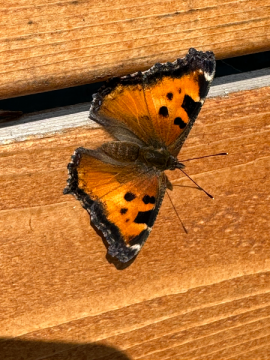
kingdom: Animalia
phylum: Arthropoda
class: Insecta
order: Lepidoptera
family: Nymphalidae
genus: Nymphalis
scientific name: Nymphalis californica
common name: California Tortoiseshell
